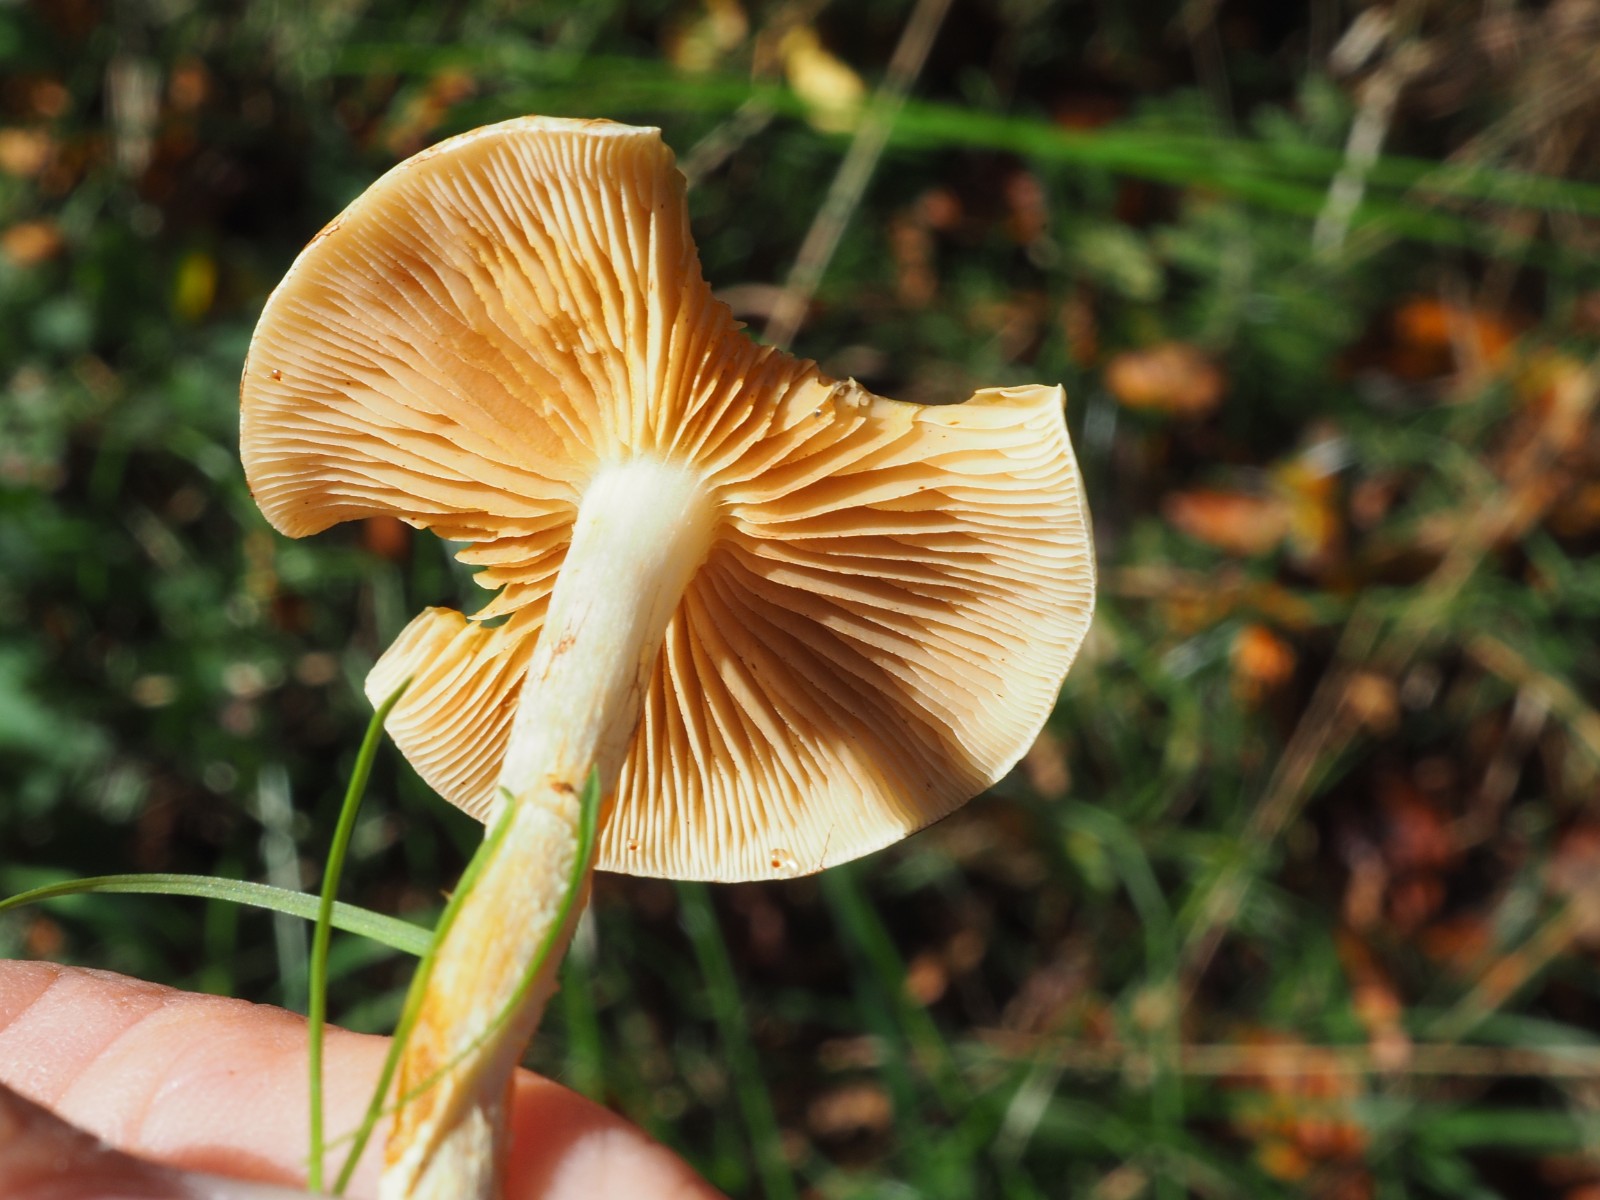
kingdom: Fungi
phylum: Basidiomycota
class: Agaricomycetes
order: Agaricales
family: Strophariaceae
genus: Pholiota
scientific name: Pholiota gummosa
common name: grøngul skælhat
